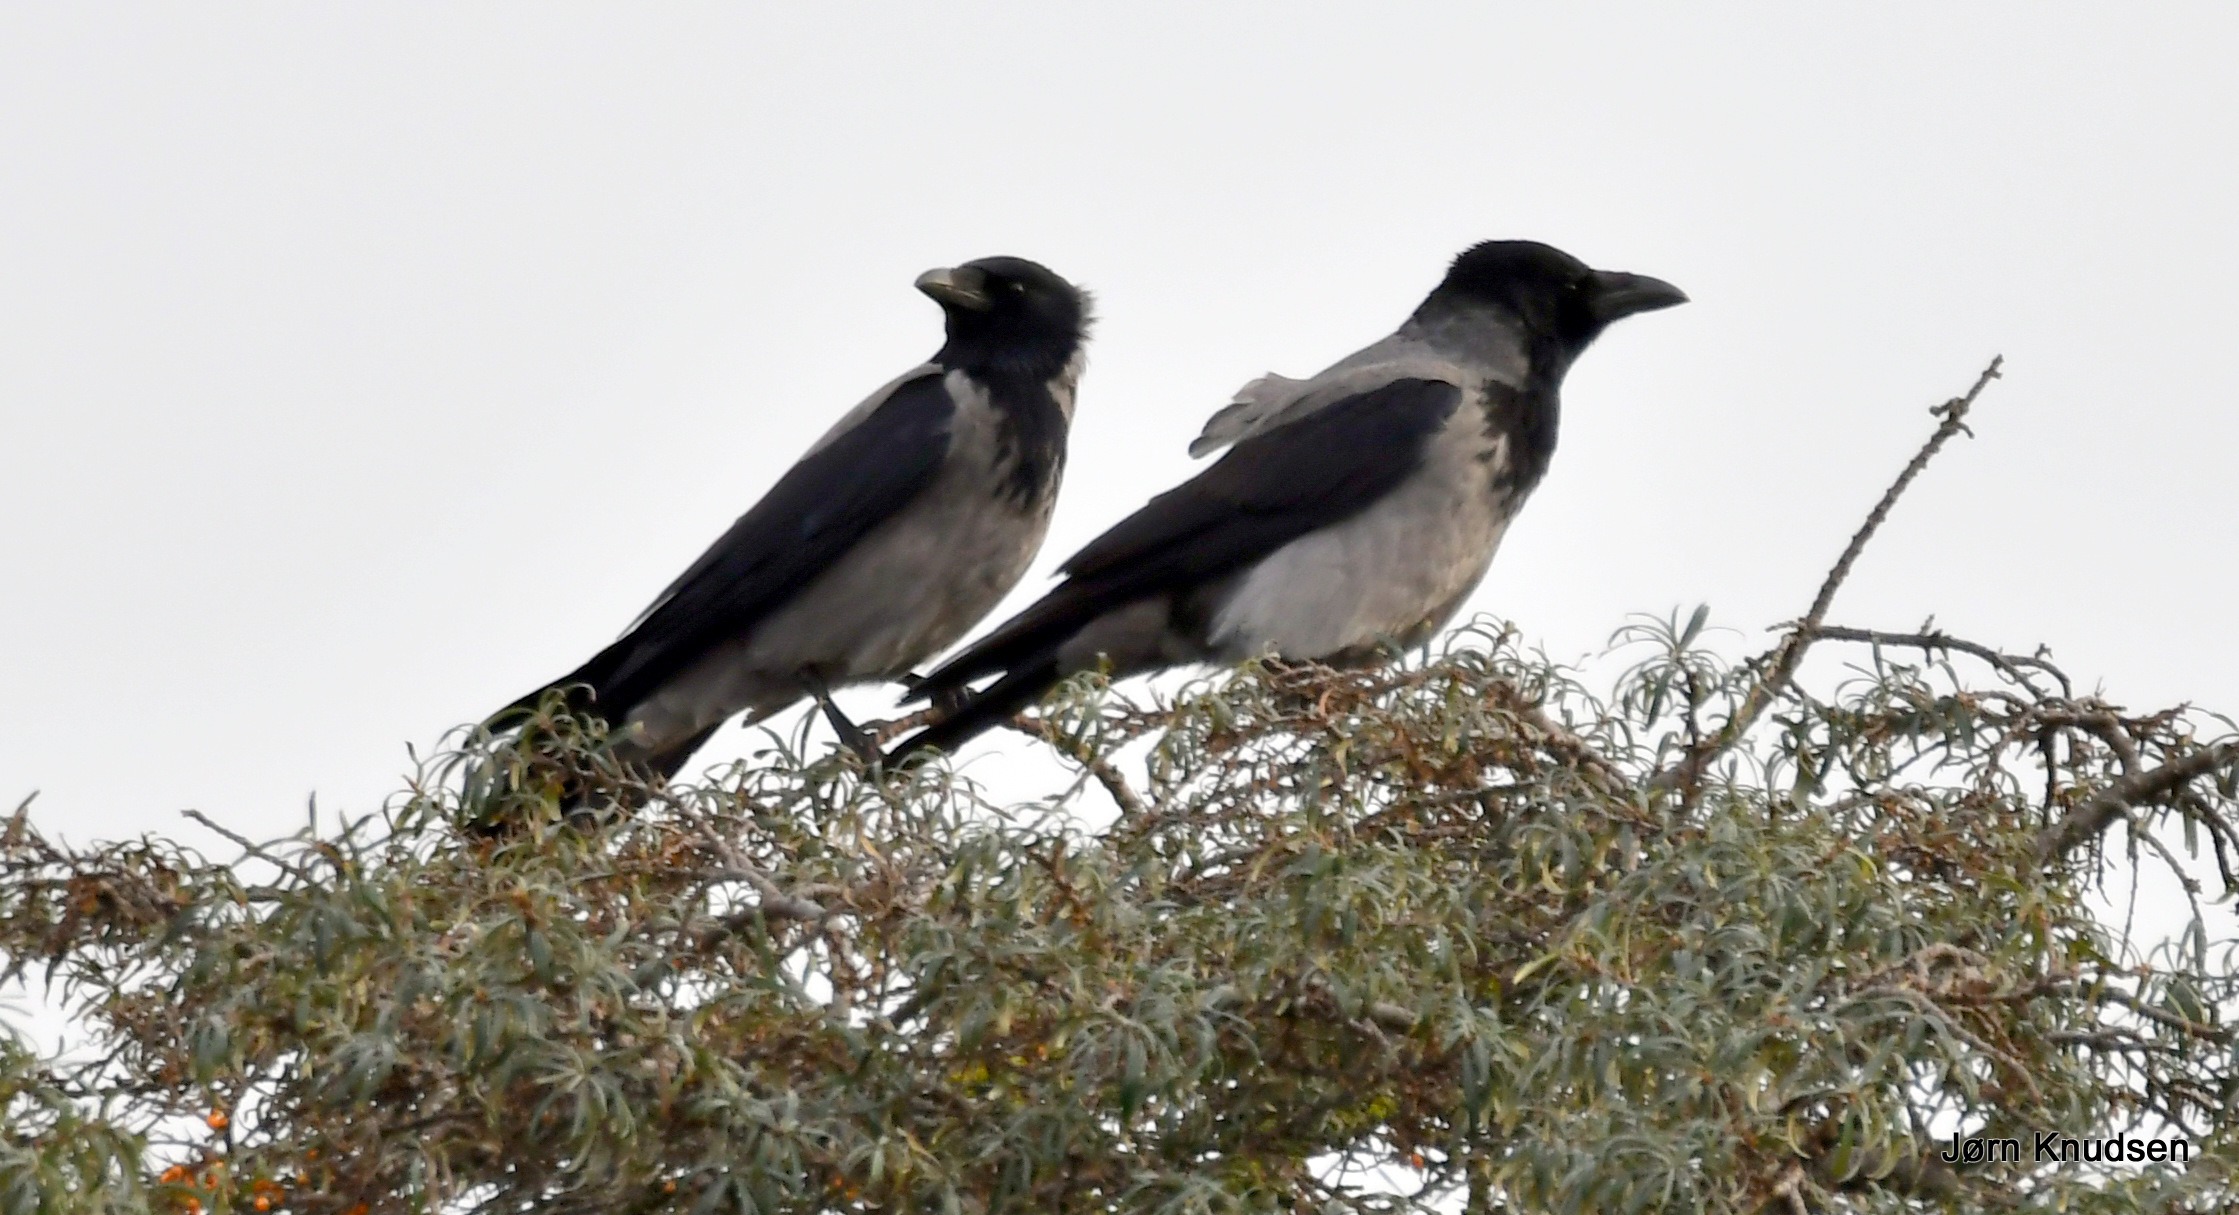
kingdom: Animalia
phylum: Chordata
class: Aves
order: Passeriformes
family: Corvidae
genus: Corvus
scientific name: Corvus cornix
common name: Gråkrage
